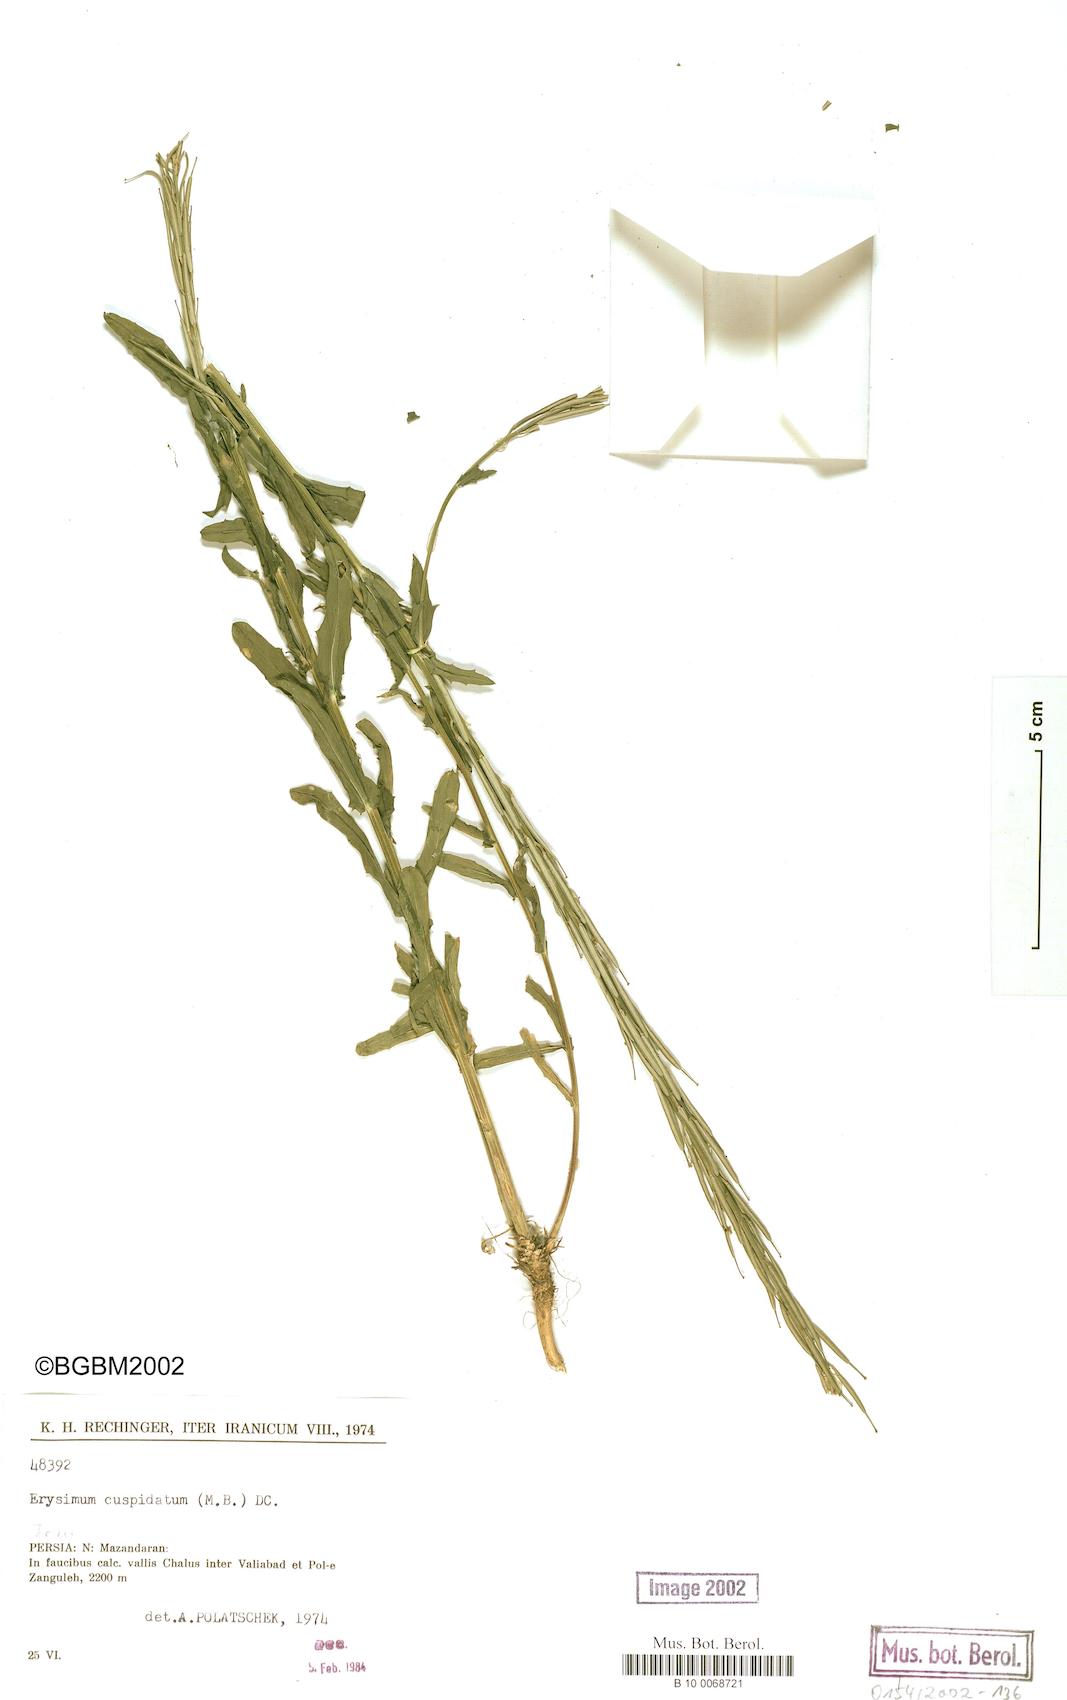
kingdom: Plantae
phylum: Tracheophyta
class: Magnoliopsida
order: Brassicales
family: Brassicaceae
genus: Erysimum
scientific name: Erysimum cuspidatum
